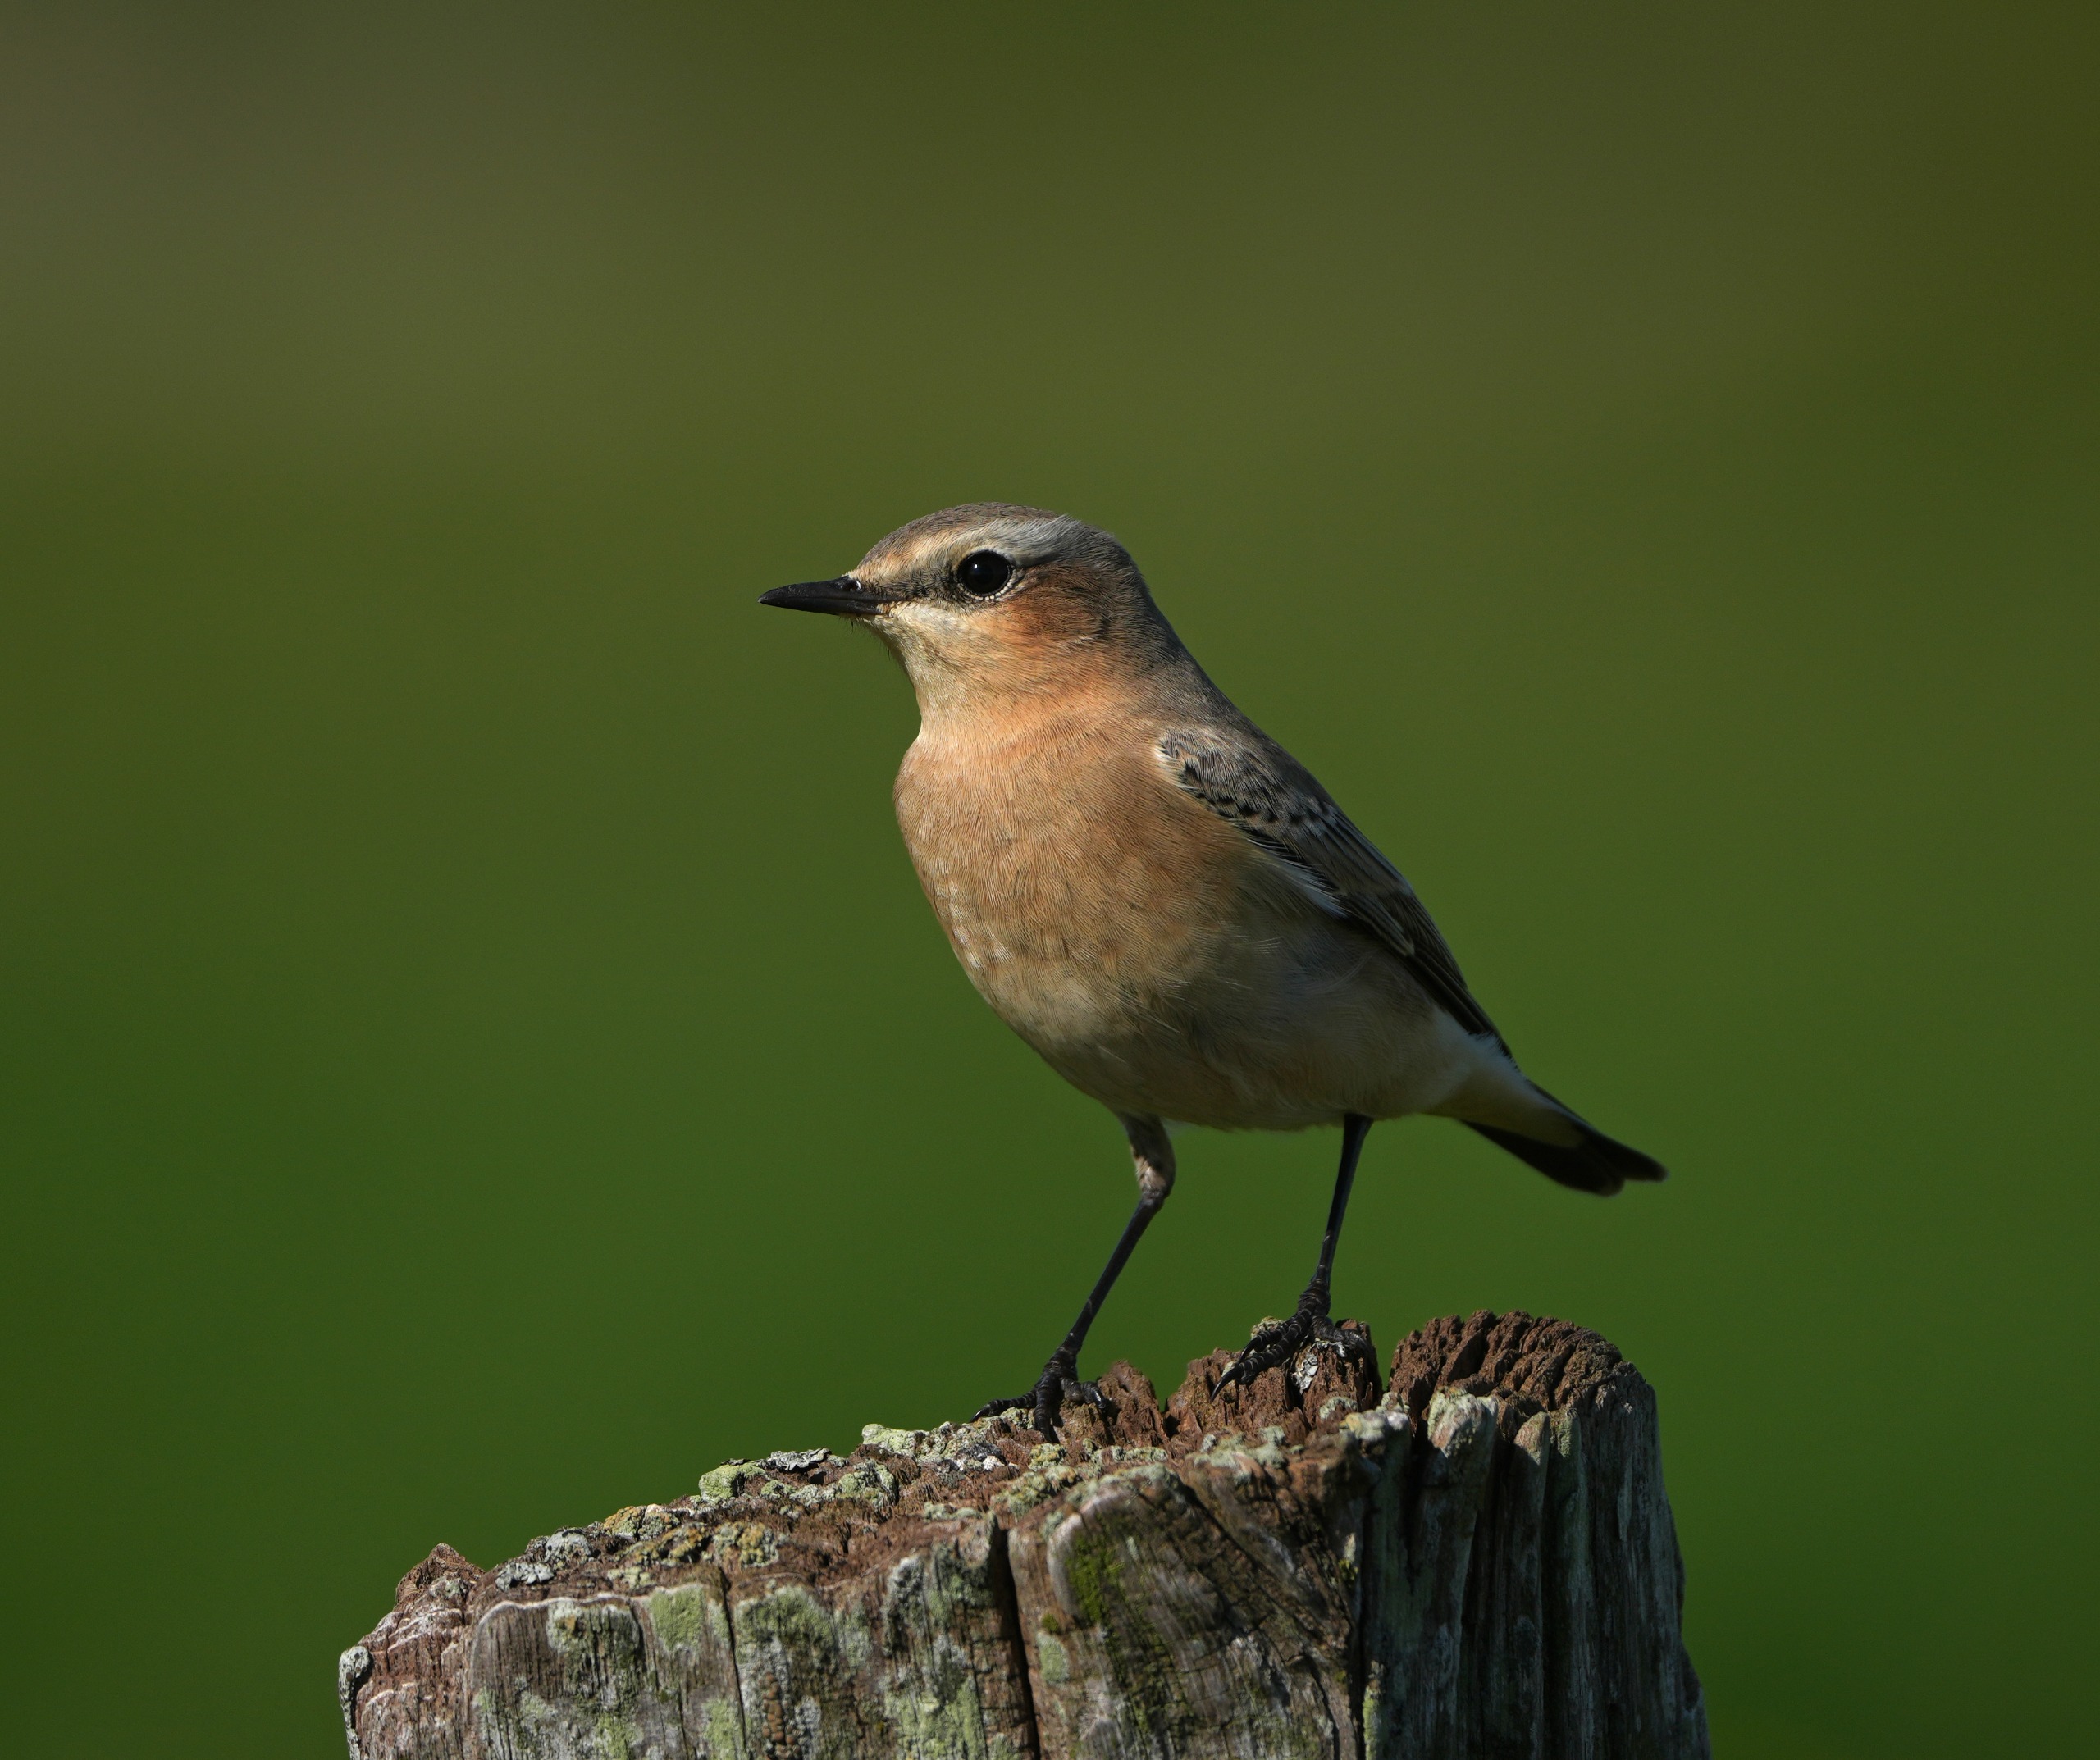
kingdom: Animalia
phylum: Chordata
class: Aves
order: Passeriformes
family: Muscicapidae
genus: Oenanthe
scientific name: Oenanthe oenanthe
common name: Stenpikker
